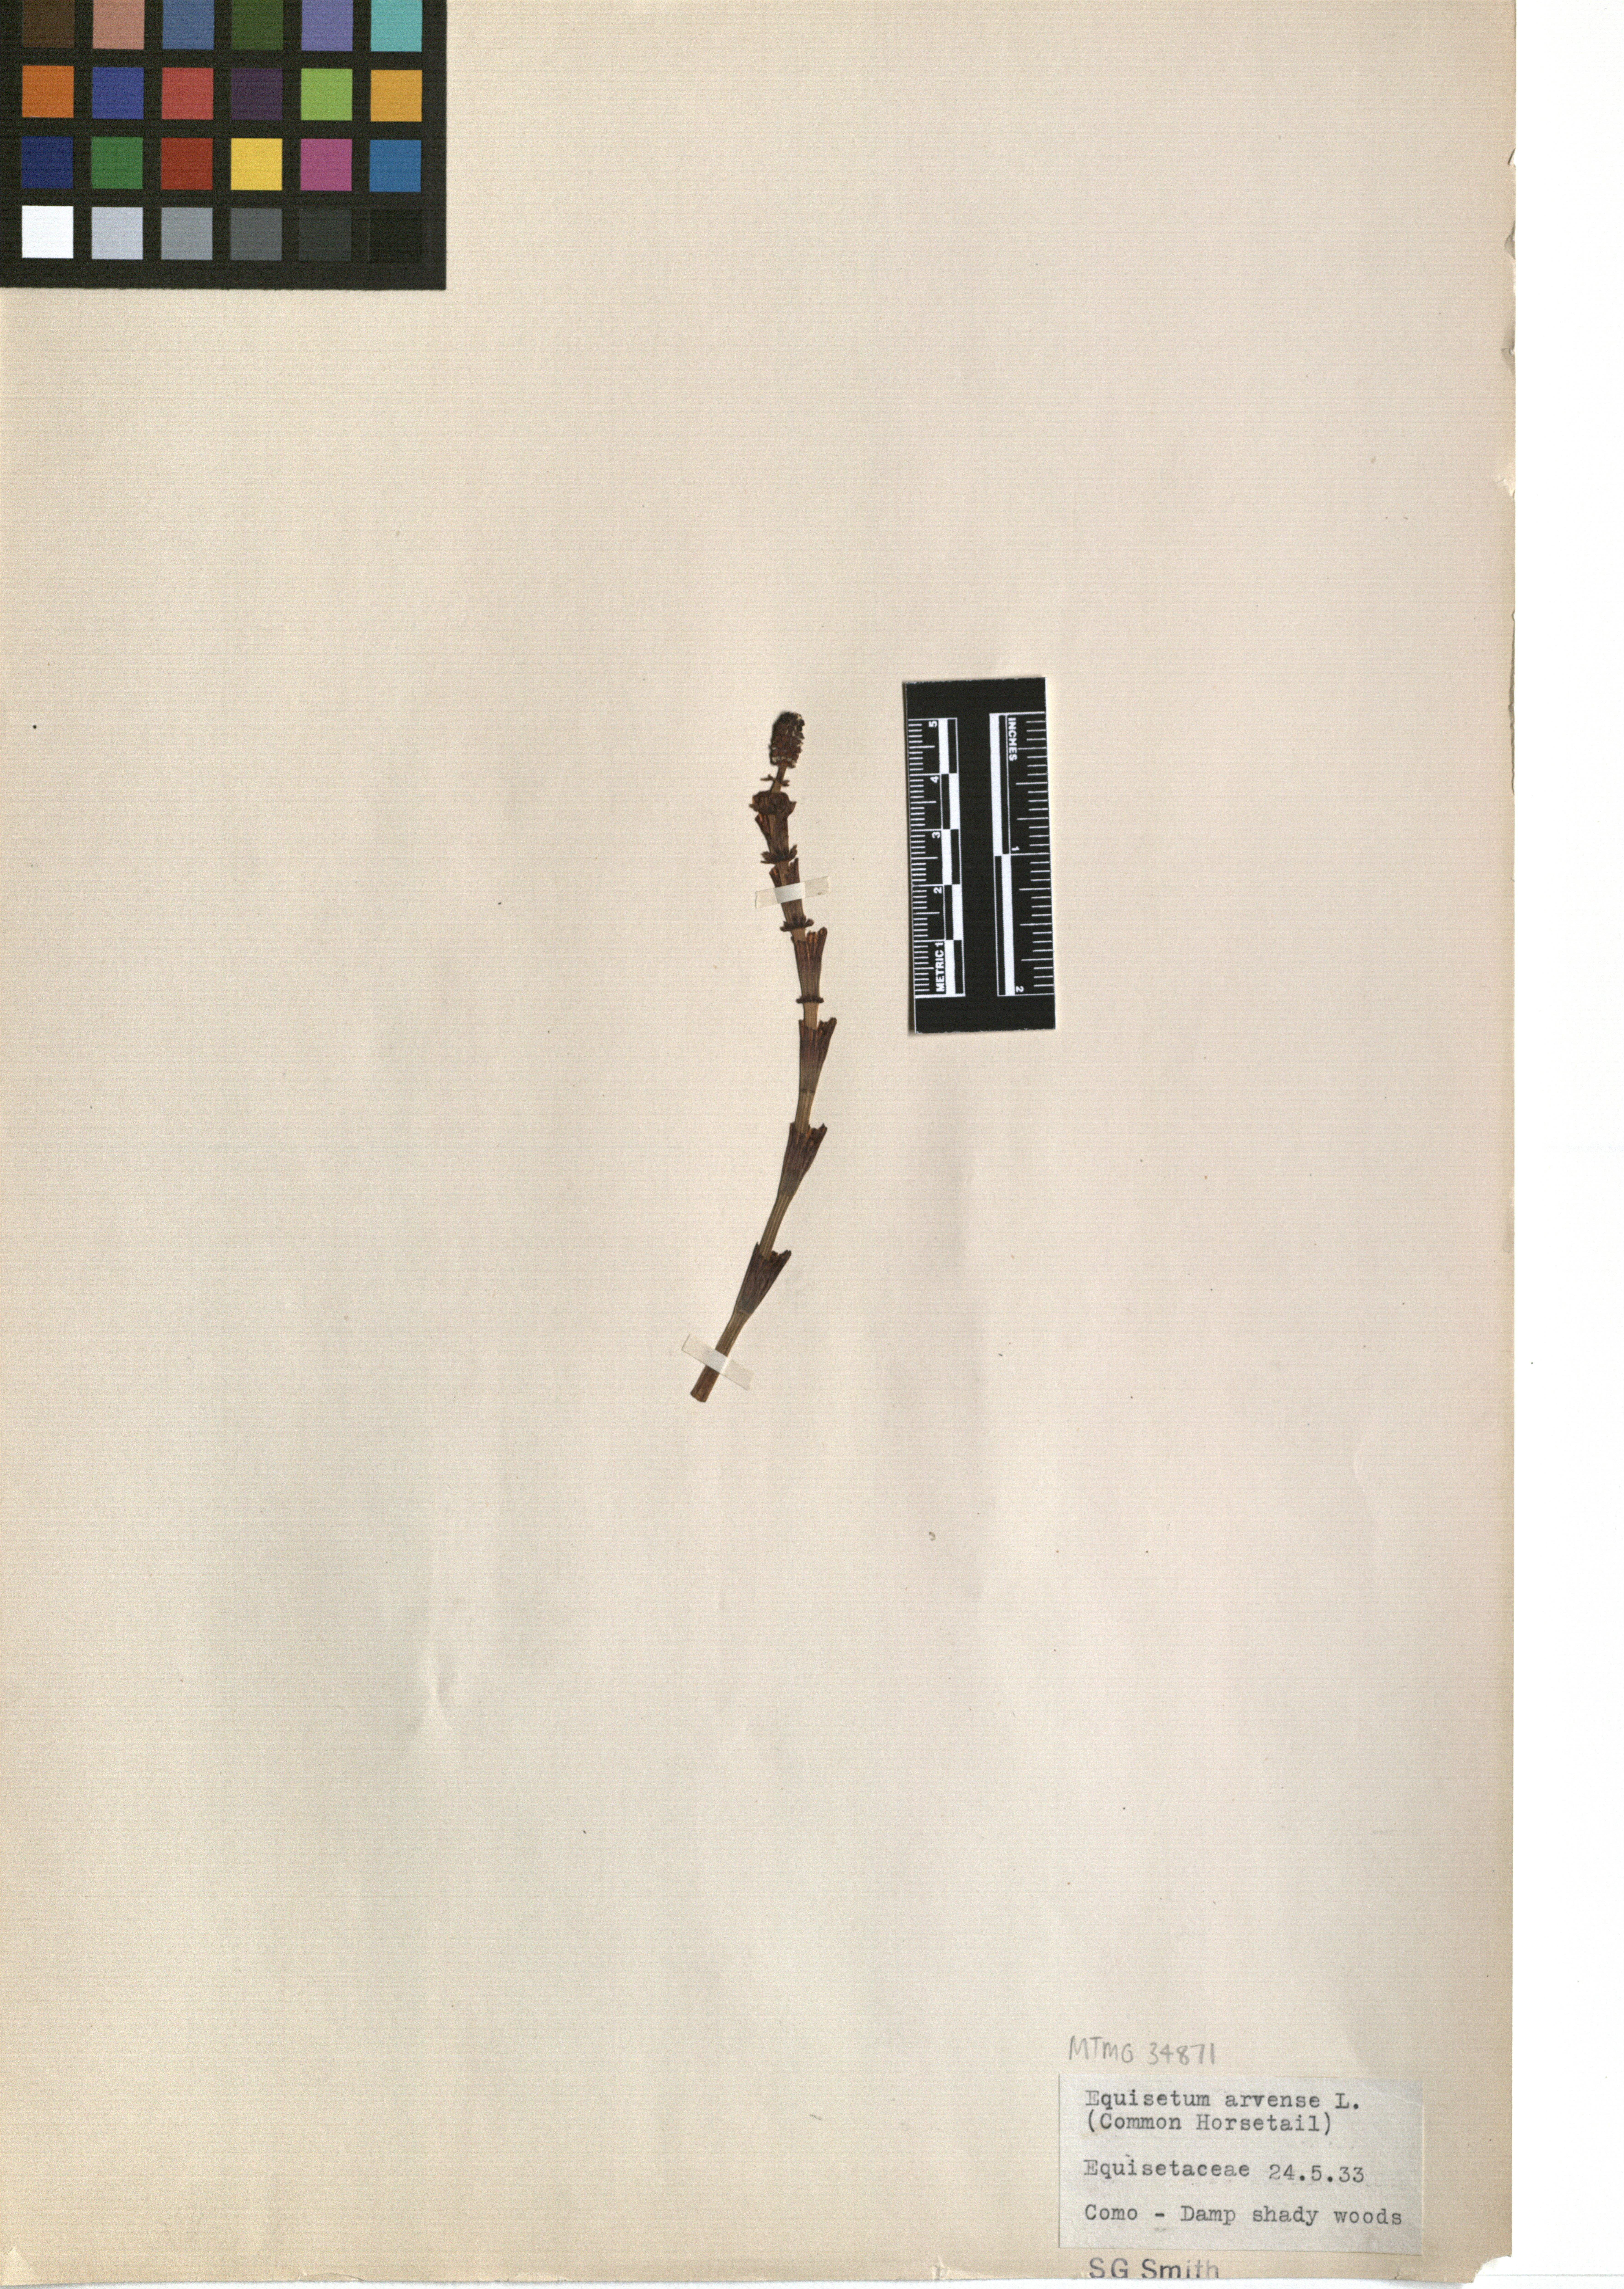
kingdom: Plantae
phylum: Tracheophyta
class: Polypodiopsida
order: Equisetales
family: Equisetaceae
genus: Equisetum
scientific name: Equisetum arvense
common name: Field horsetail
